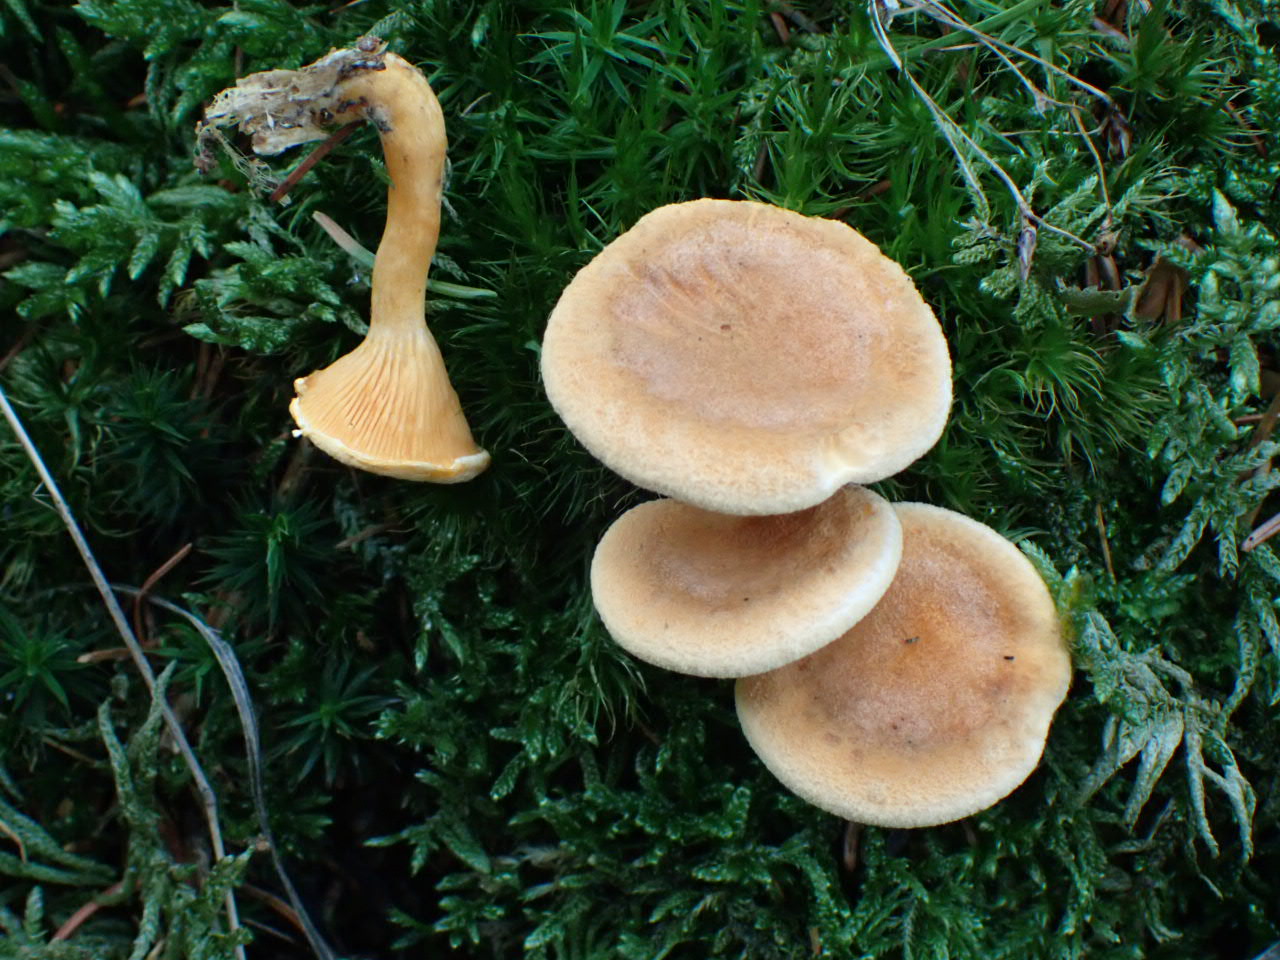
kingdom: Fungi
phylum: Basidiomycota
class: Agaricomycetes
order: Boletales
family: Hygrophoropsidaceae
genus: Hygrophoropsis
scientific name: Hygrophoropsis aurantiaca
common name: almindelig orangekantarel
